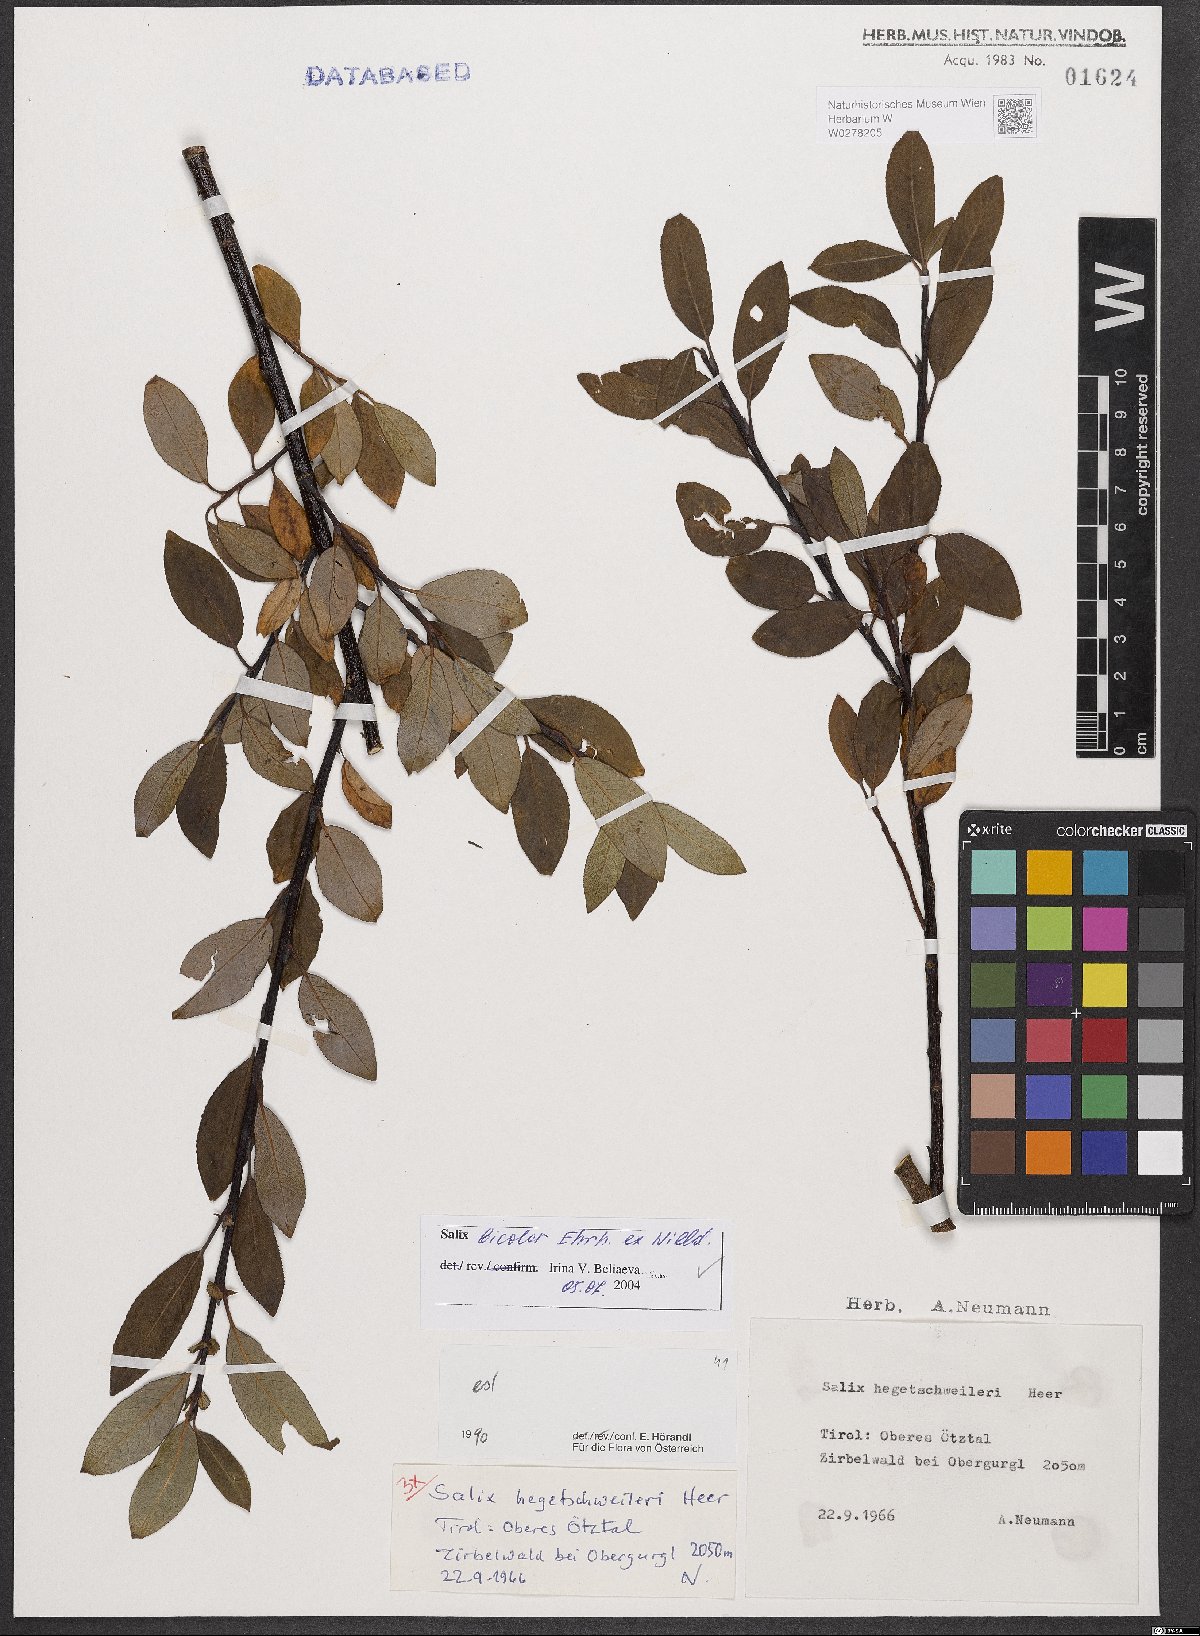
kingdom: Plantae
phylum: Tracheophyta
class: Magnoliopsida
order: Malpighiales
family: Salicaceae
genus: Salix
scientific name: Salix bicolor
